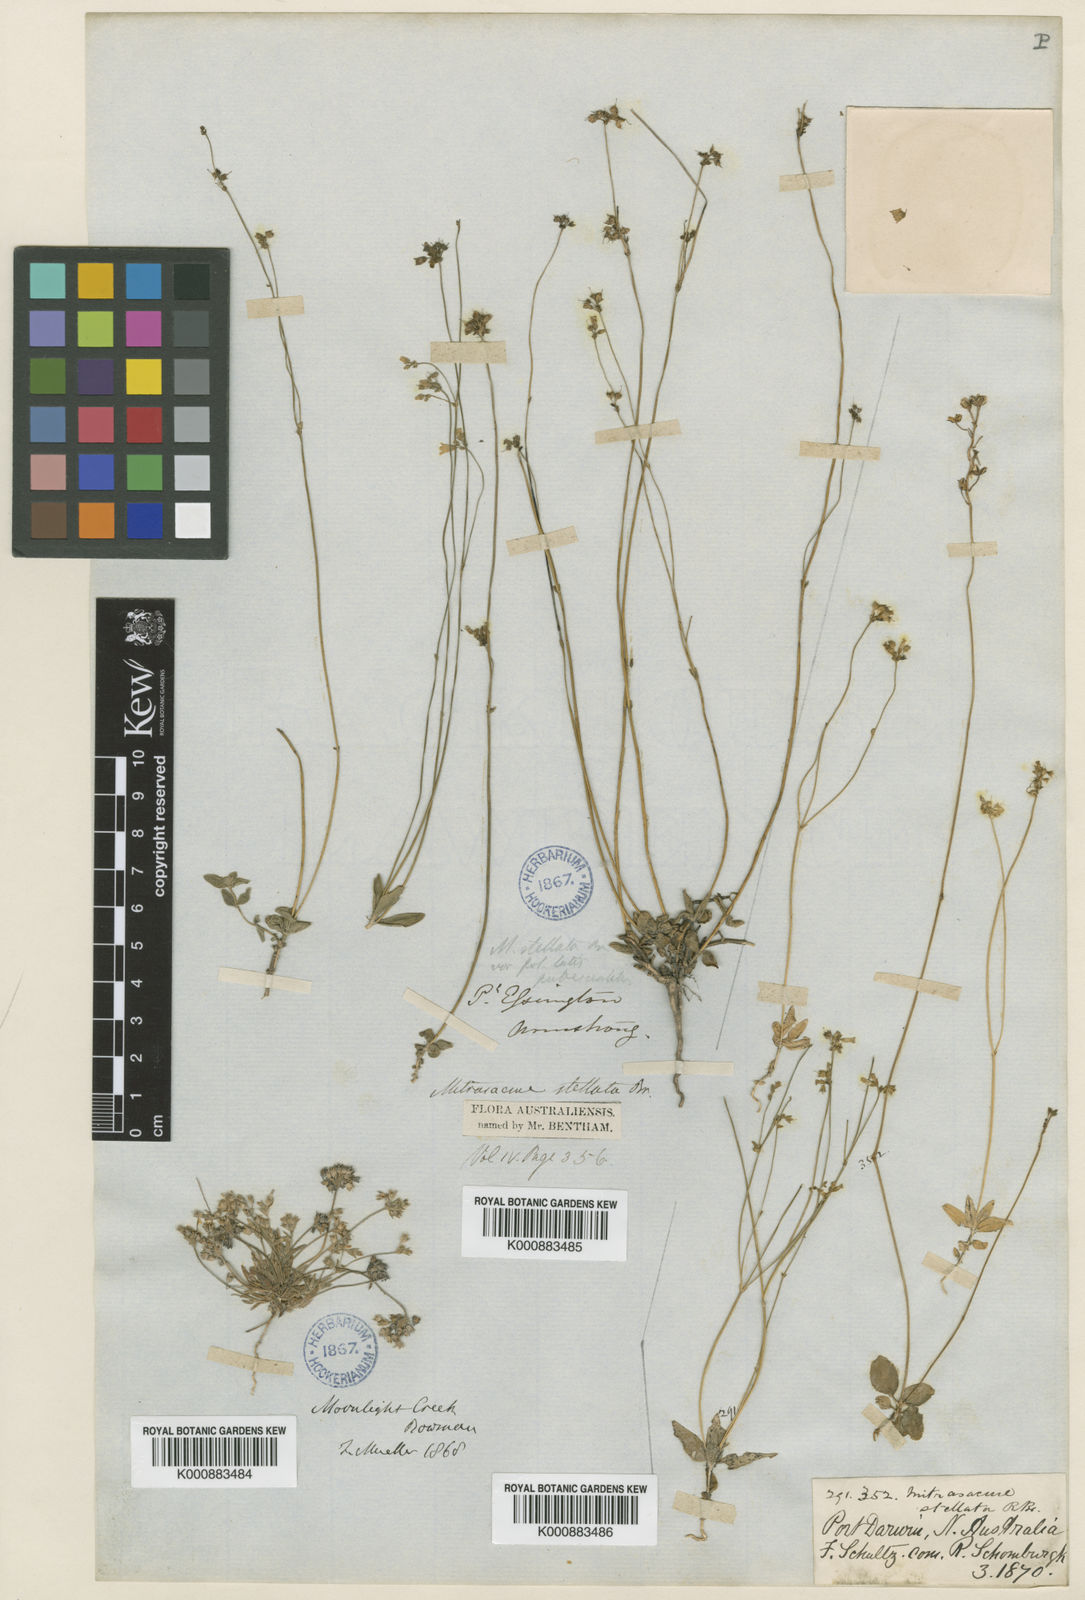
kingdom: Plantae
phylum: Tracheophyta
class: Magnoliopsida
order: Gentianales
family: Loganiaceae
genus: Mitrasacme
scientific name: Mitrasacme stellata
